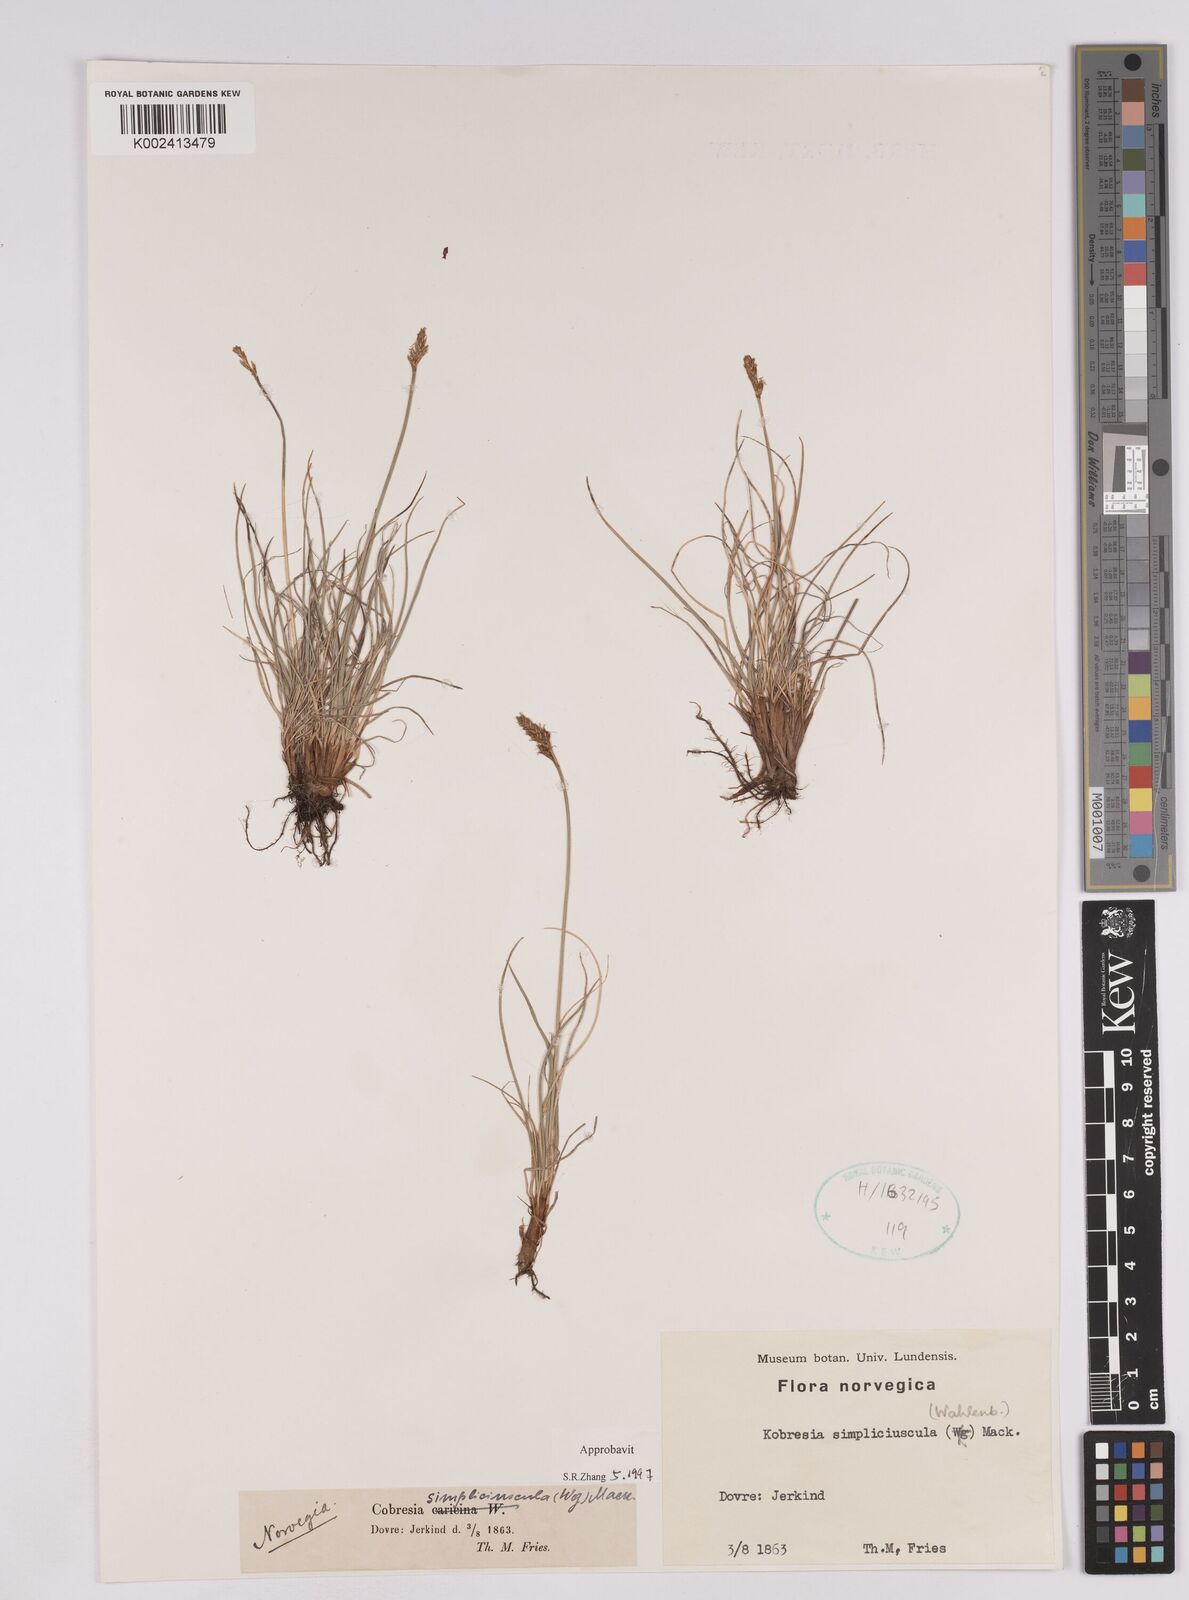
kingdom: Plantae
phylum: Tracheophyta
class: Liliopsida
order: Poales
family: Cyperaceae
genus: Carex
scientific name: Carex simpliciuscula
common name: Simple bog sedge
